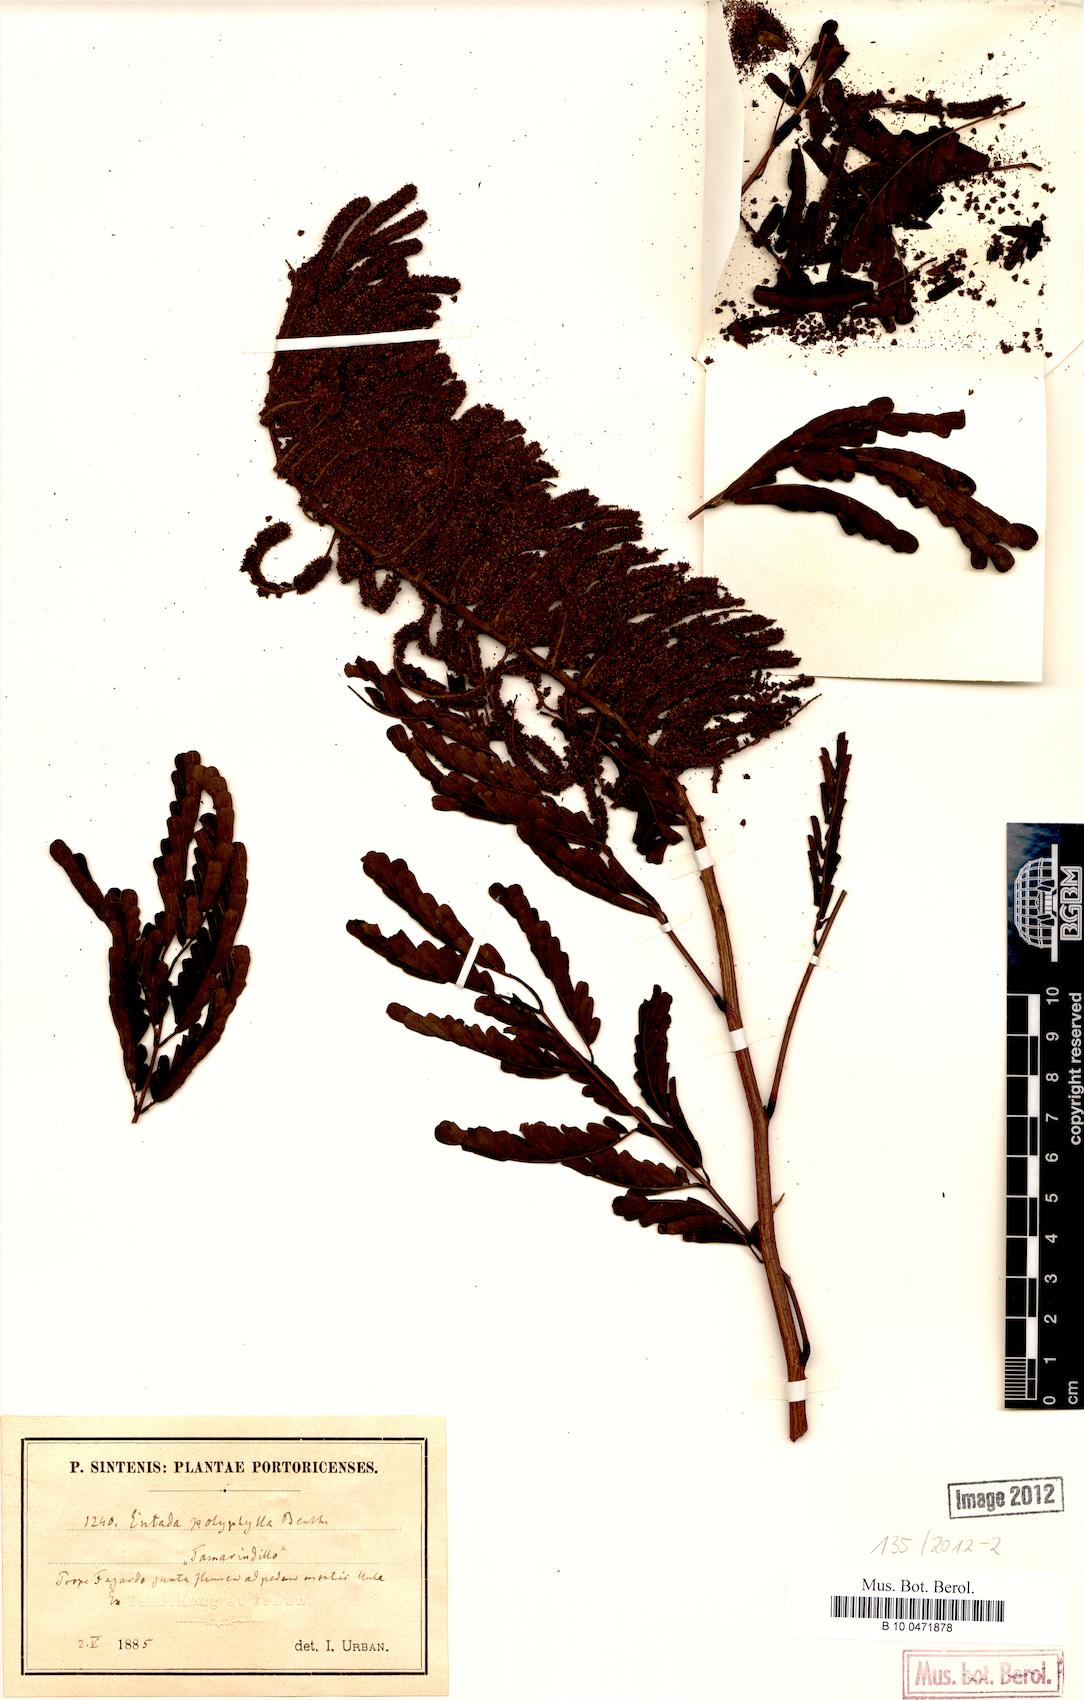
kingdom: Plantae
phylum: Tracheophyta
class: Magnoliopsida
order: Fabales
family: Fabaceae
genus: Entada
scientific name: Entada polyphylla
